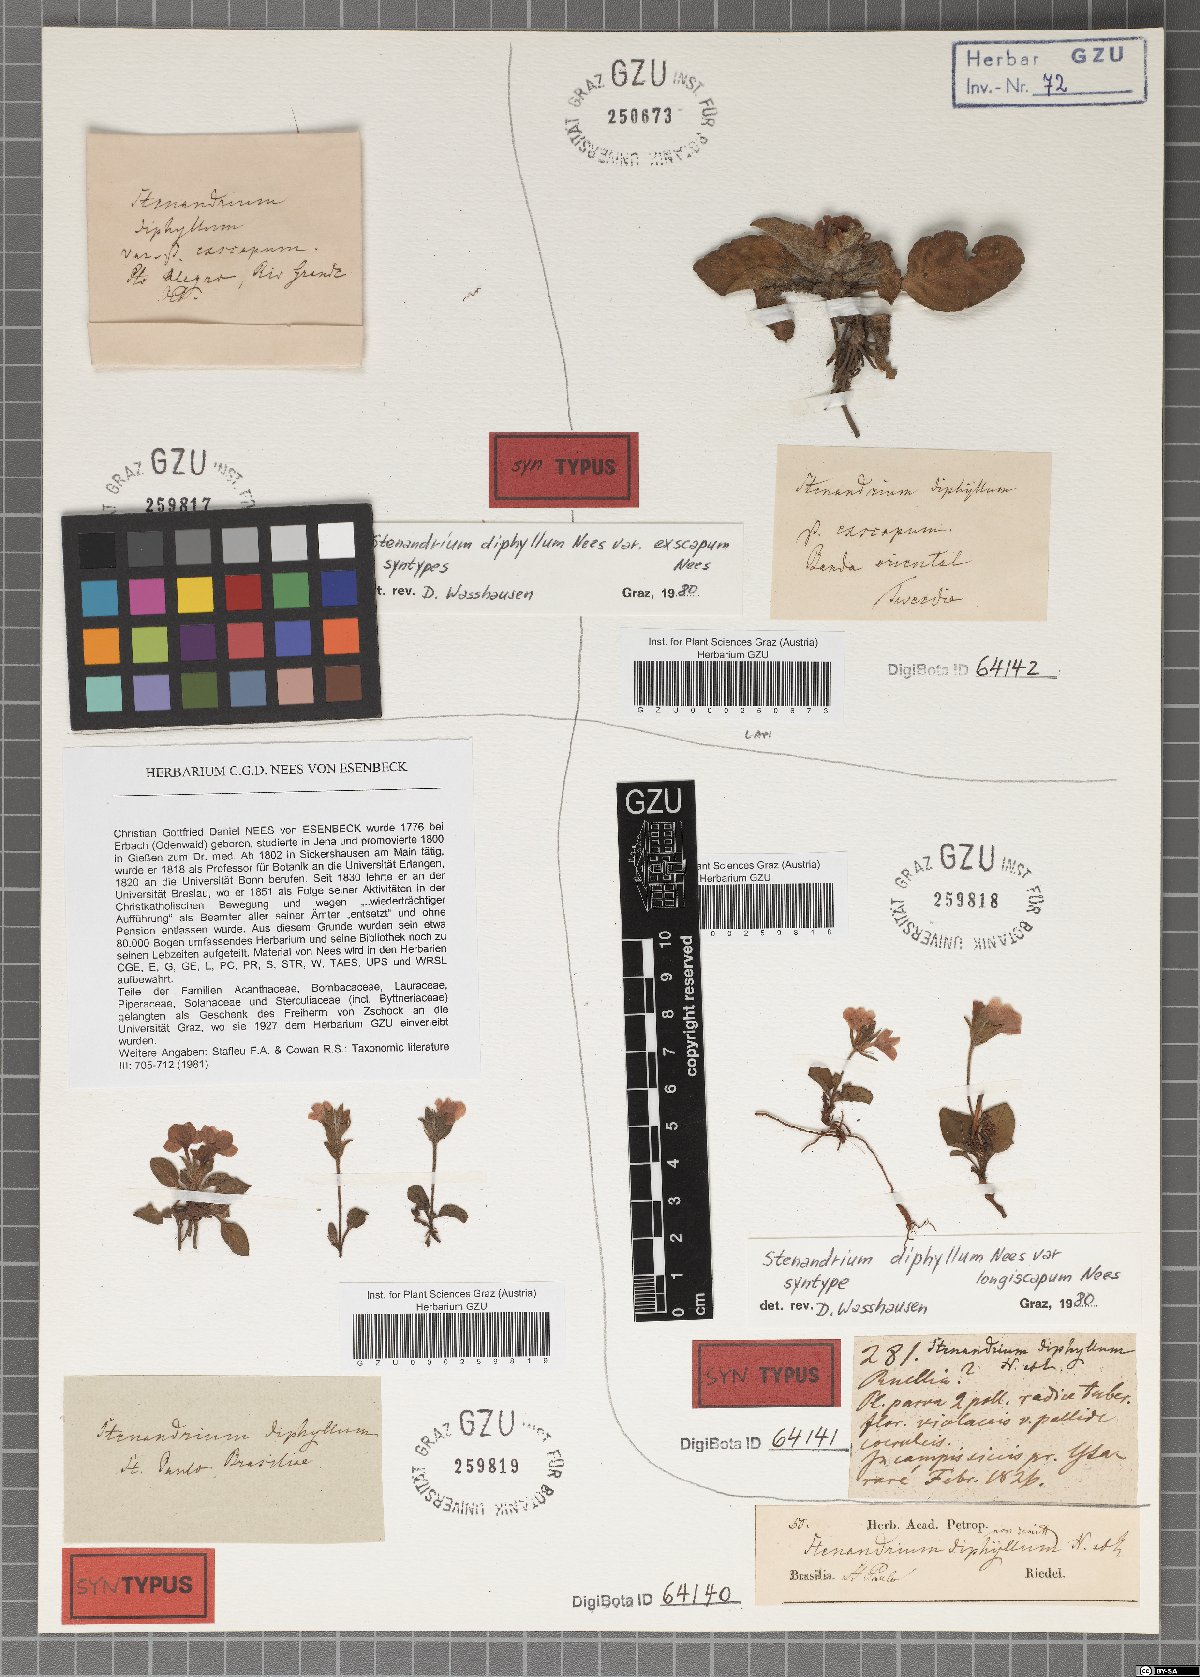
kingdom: Plantae
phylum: Tracheophyta
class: Magnoliopsida
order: Lamiales
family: Acanthaceae
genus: Stenandrium
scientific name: Stenandrium diphyllum
